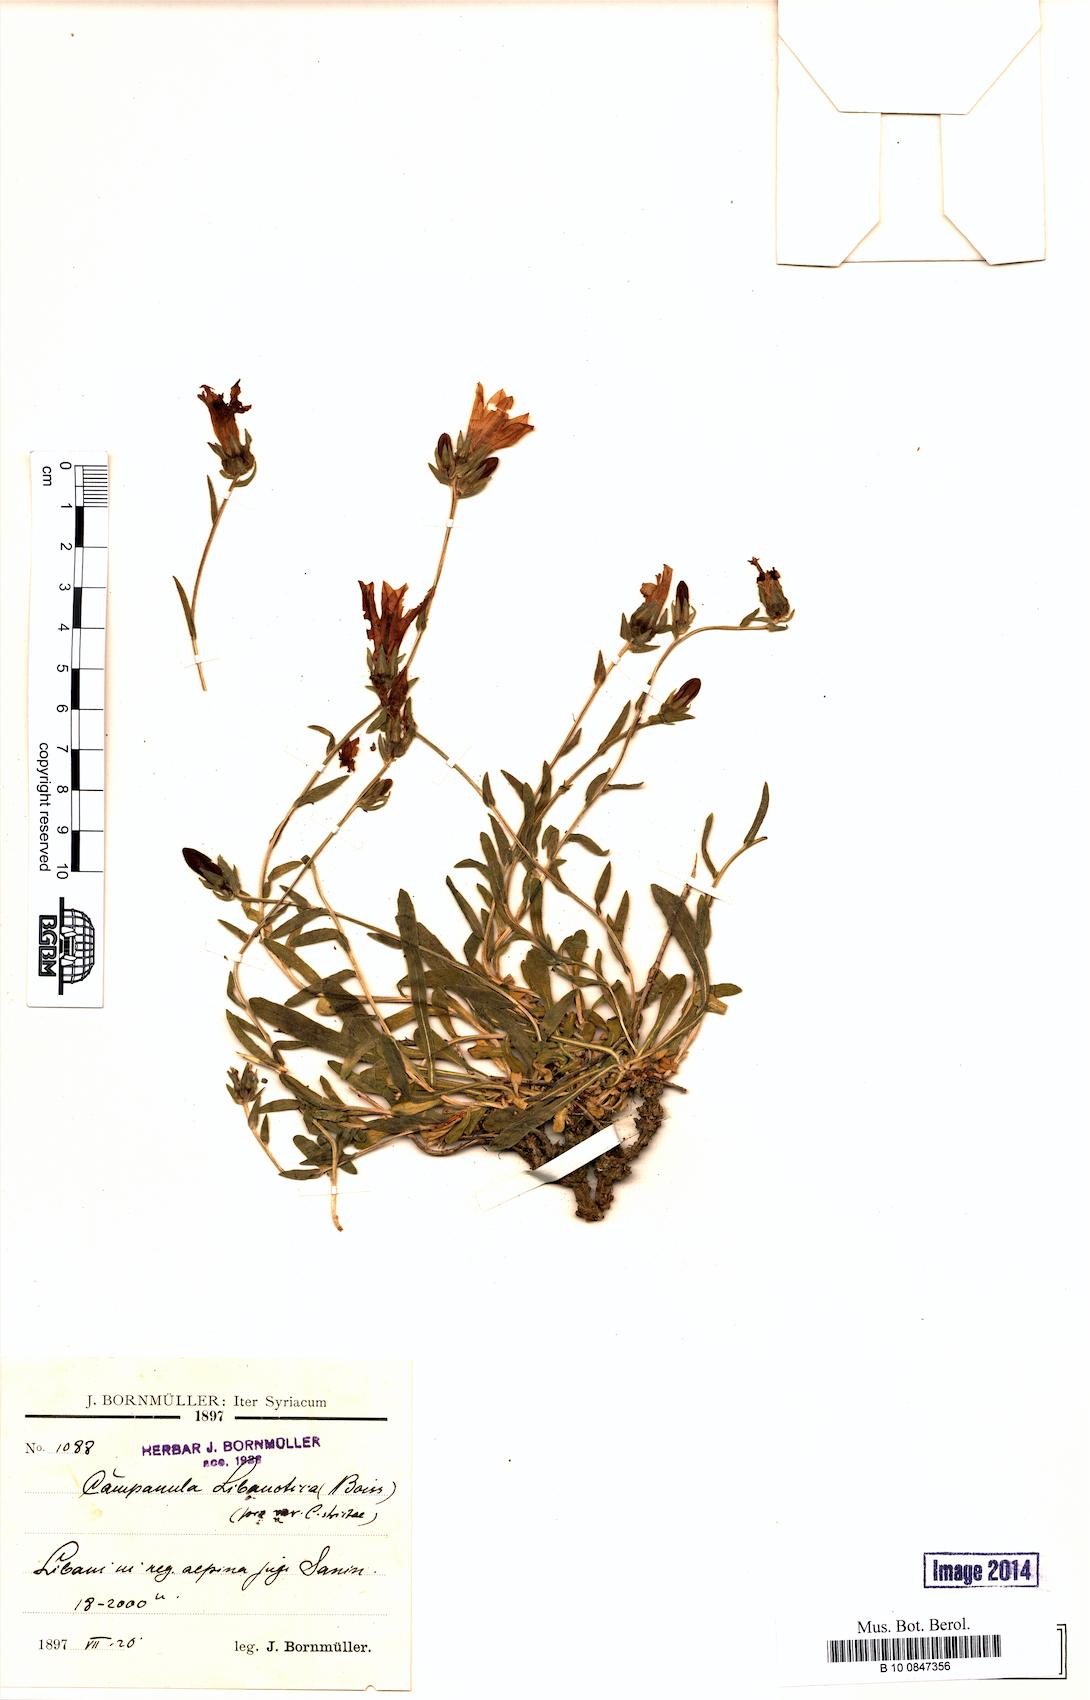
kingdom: Plantae
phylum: Tracheophyta
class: Magnoliopsida
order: Asterales
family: Campanulaceae
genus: Campanula
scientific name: Campanula stricta
